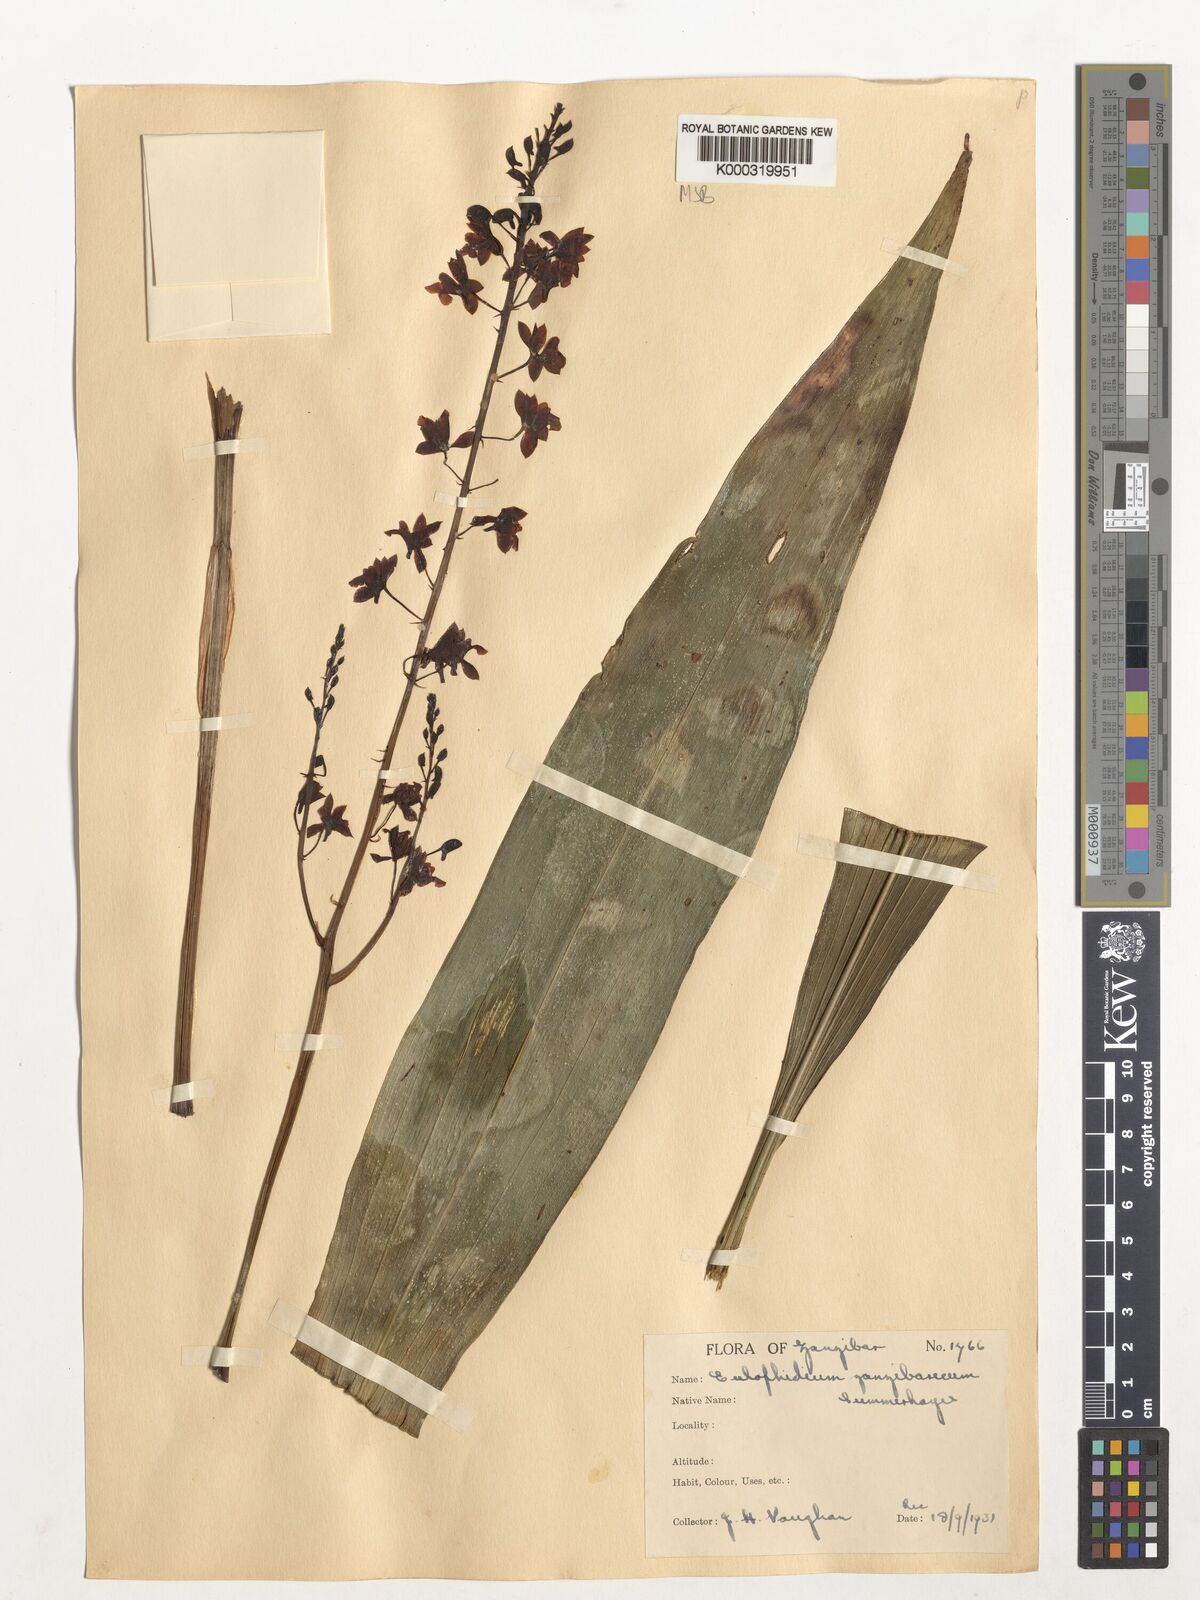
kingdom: Plantae
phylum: Tracheophyta
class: Liliopsida
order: Asparagales
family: Orchidaceae
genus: Eulophia
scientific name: Eulophia zanzibarica
